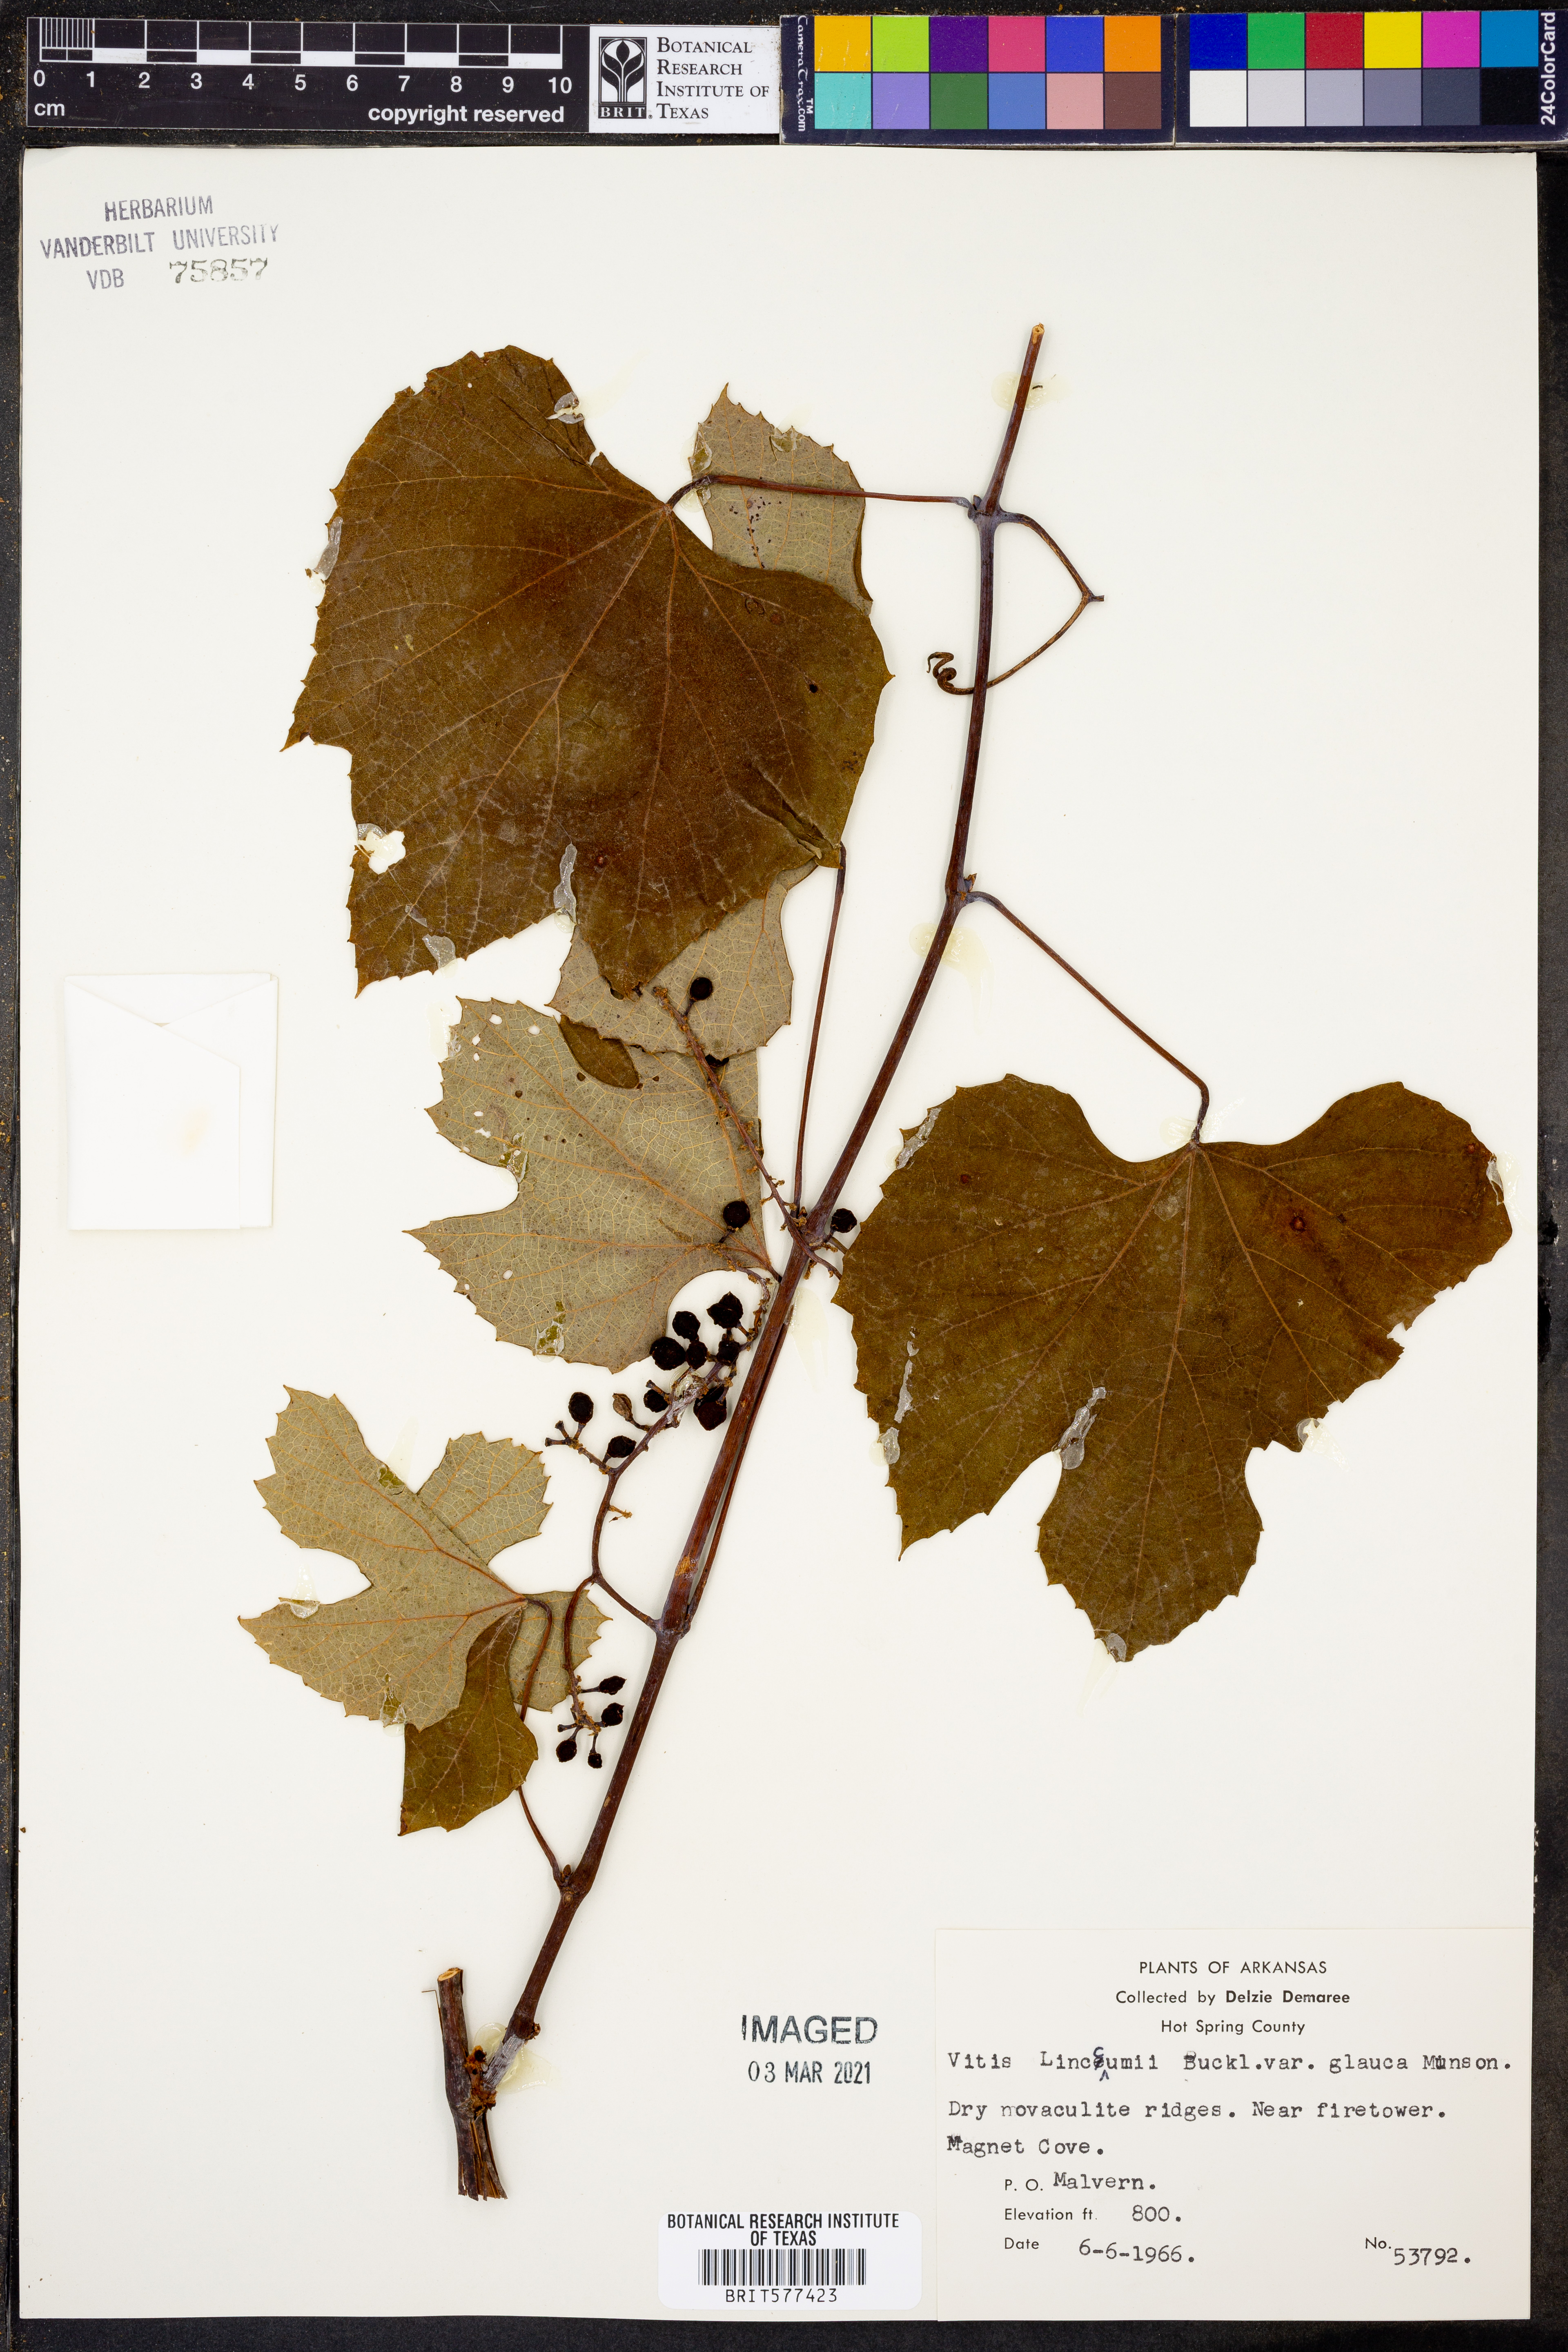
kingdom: Plantae
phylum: Tracheophyta
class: Magnoliopsida
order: Vitales
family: Vitaceae
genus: Vitis
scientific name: Vitis aestivalis
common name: Pigeon grape
